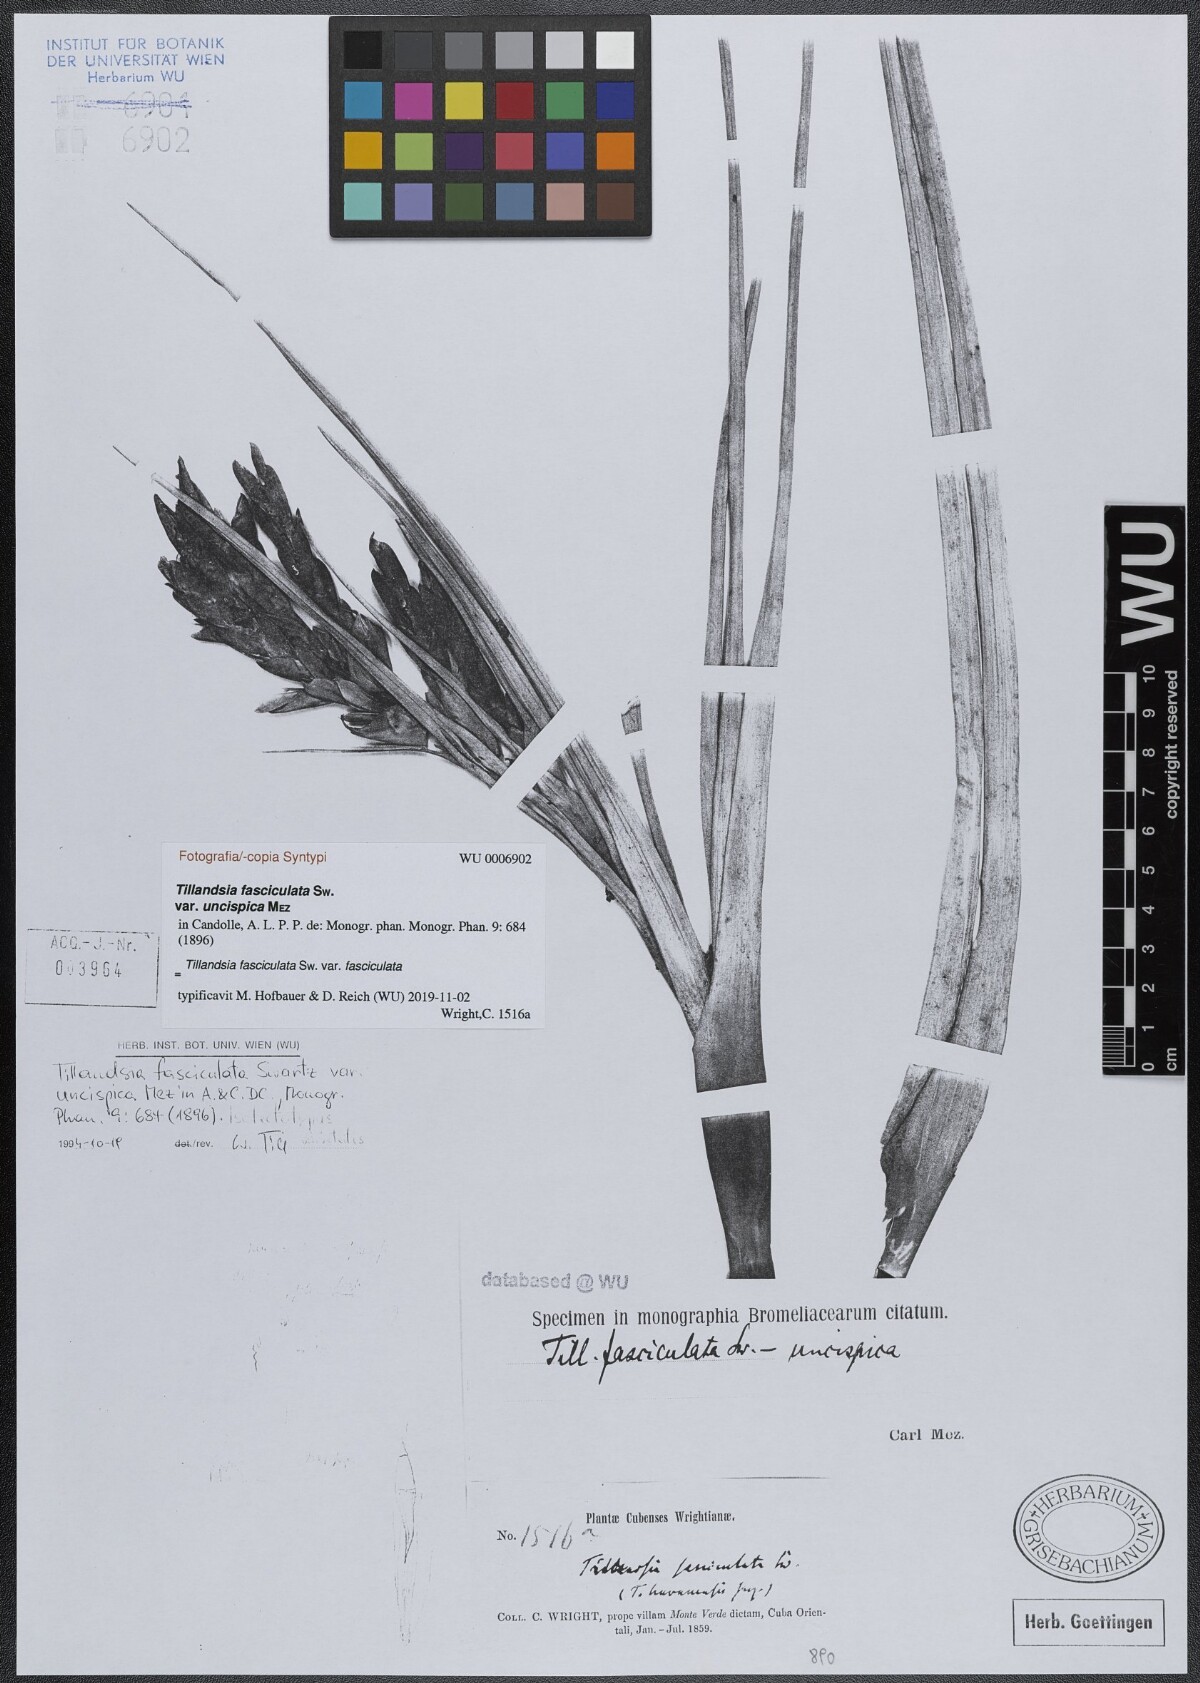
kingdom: Plantae
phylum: Tracheophyta
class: Liliopsida
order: Poales
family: Bromeliaceae
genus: Tillandsia
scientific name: Tillandsia fasciculata
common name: Giant airplant
